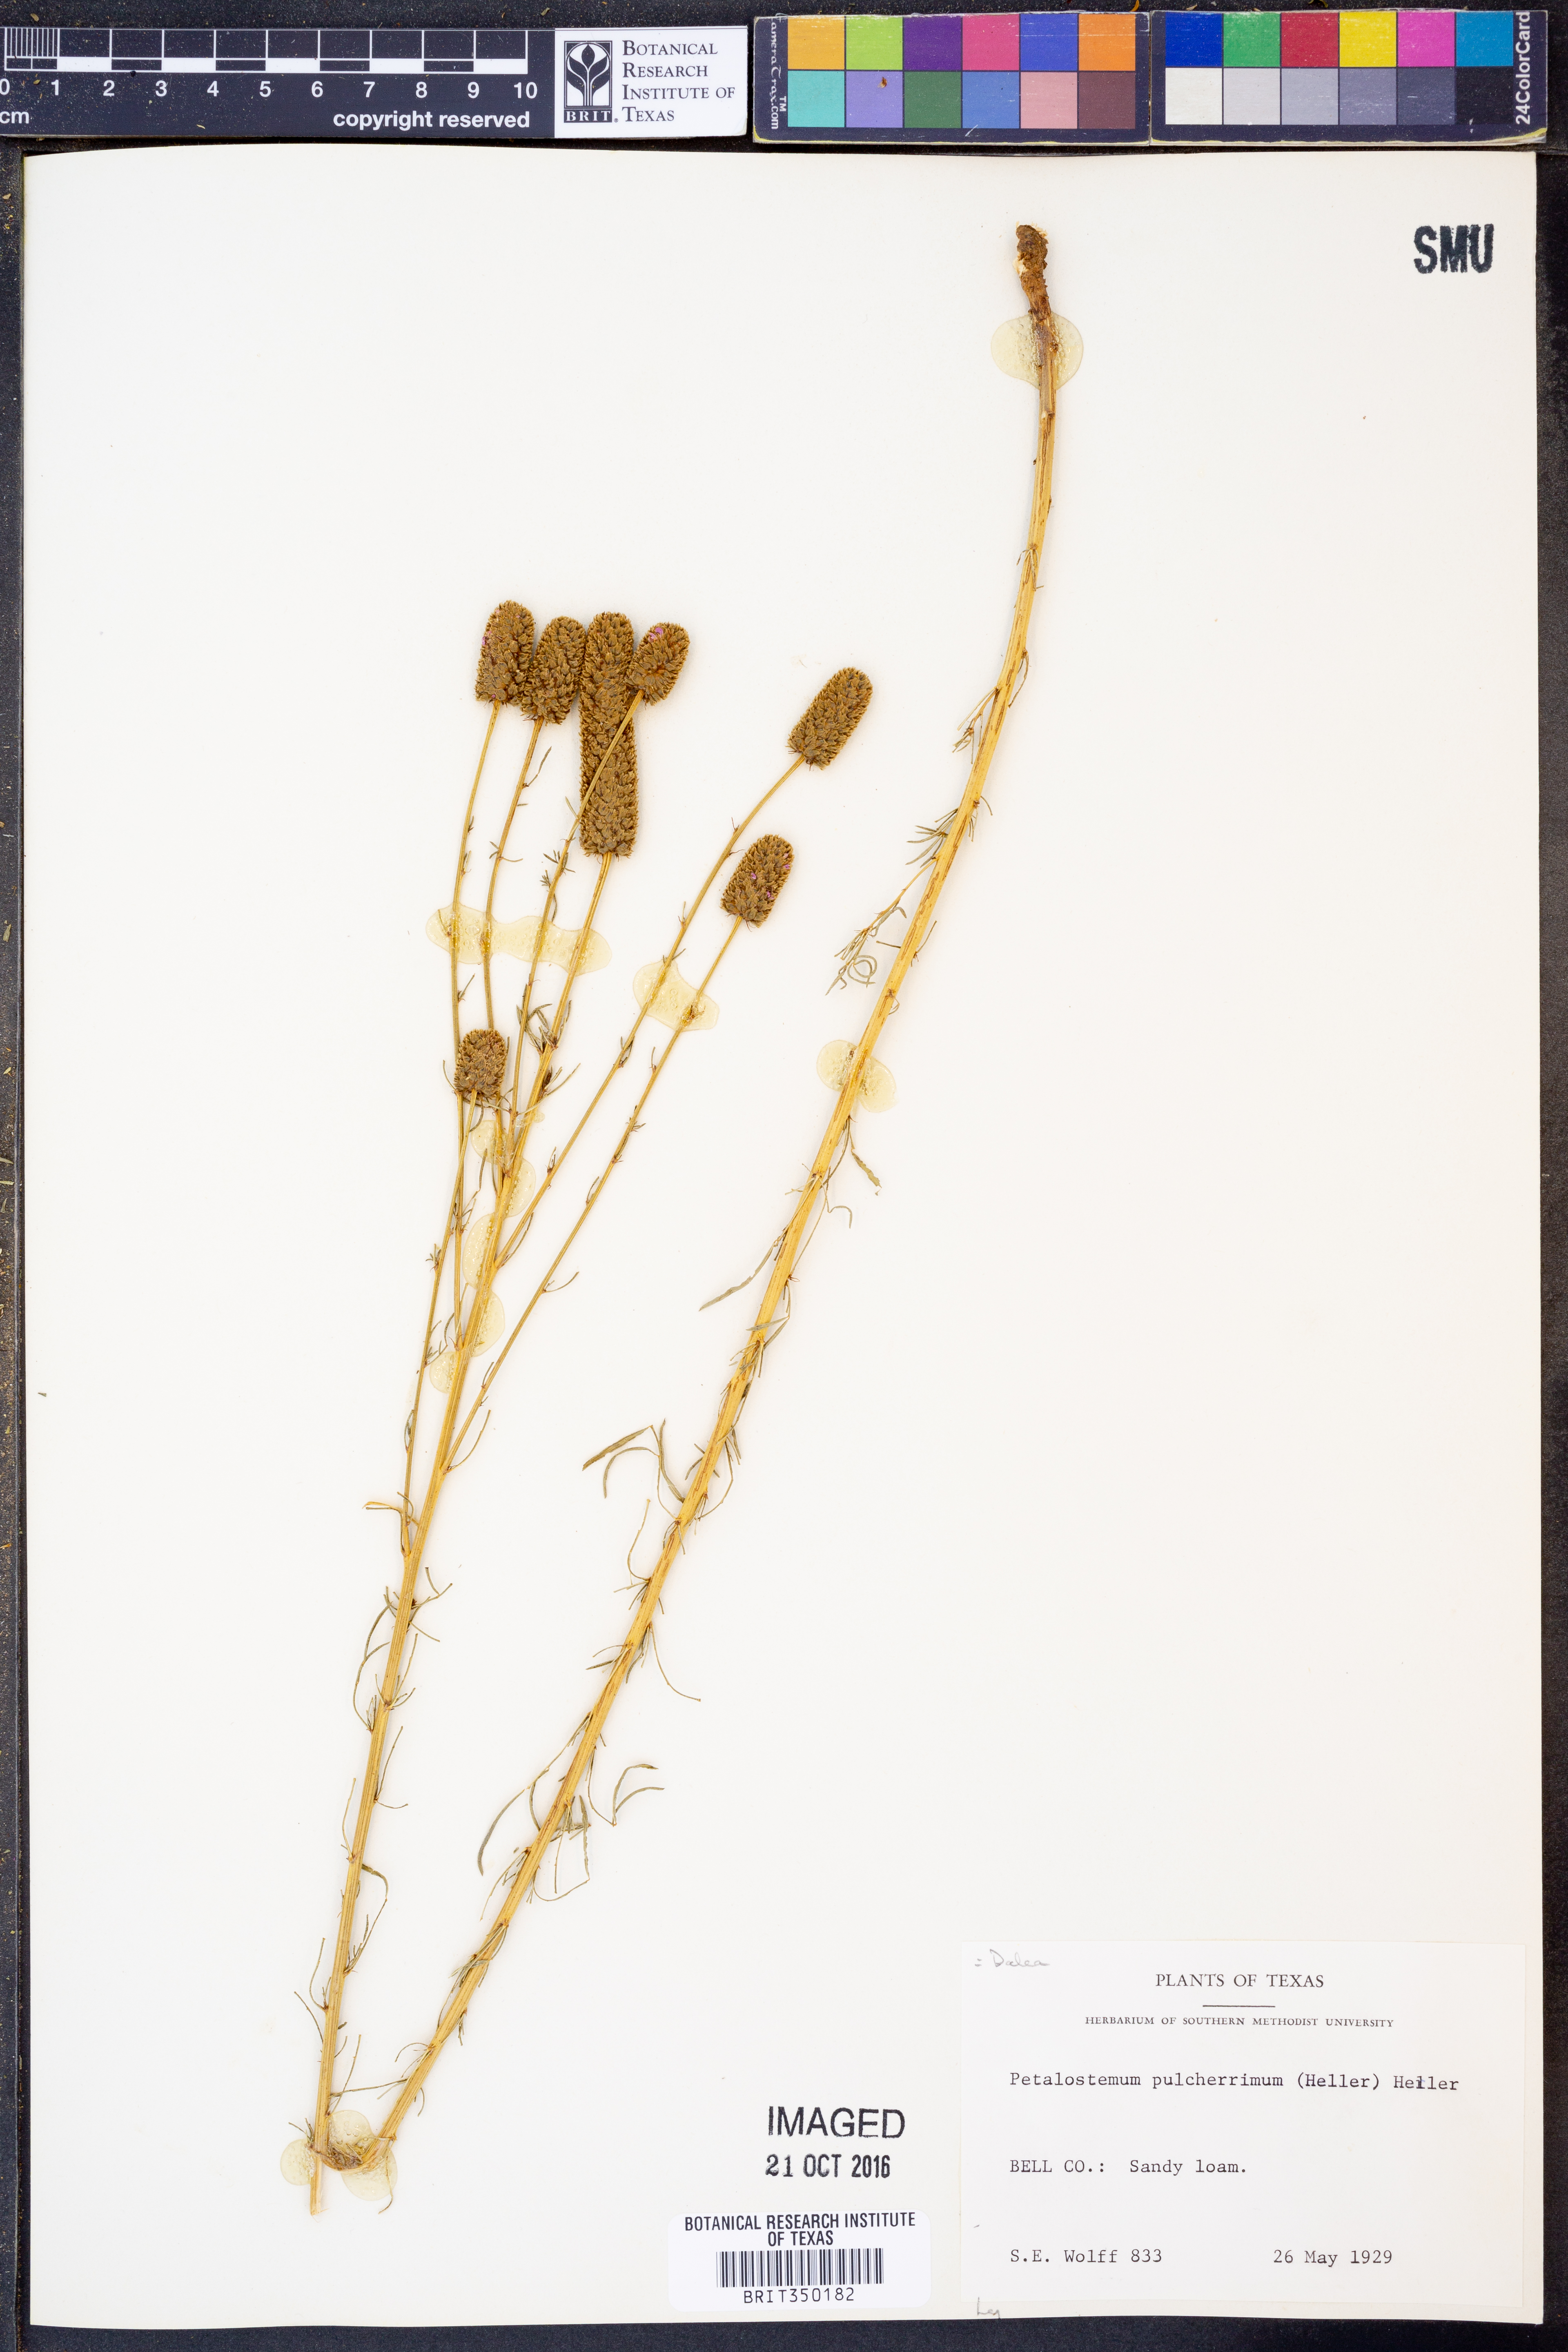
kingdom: Plantae
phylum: Tracheophyta
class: Magnoliopsida
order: Fabales
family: Fabaceae
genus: Dalea
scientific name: Dalea compacta
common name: Compact prairie-clover
